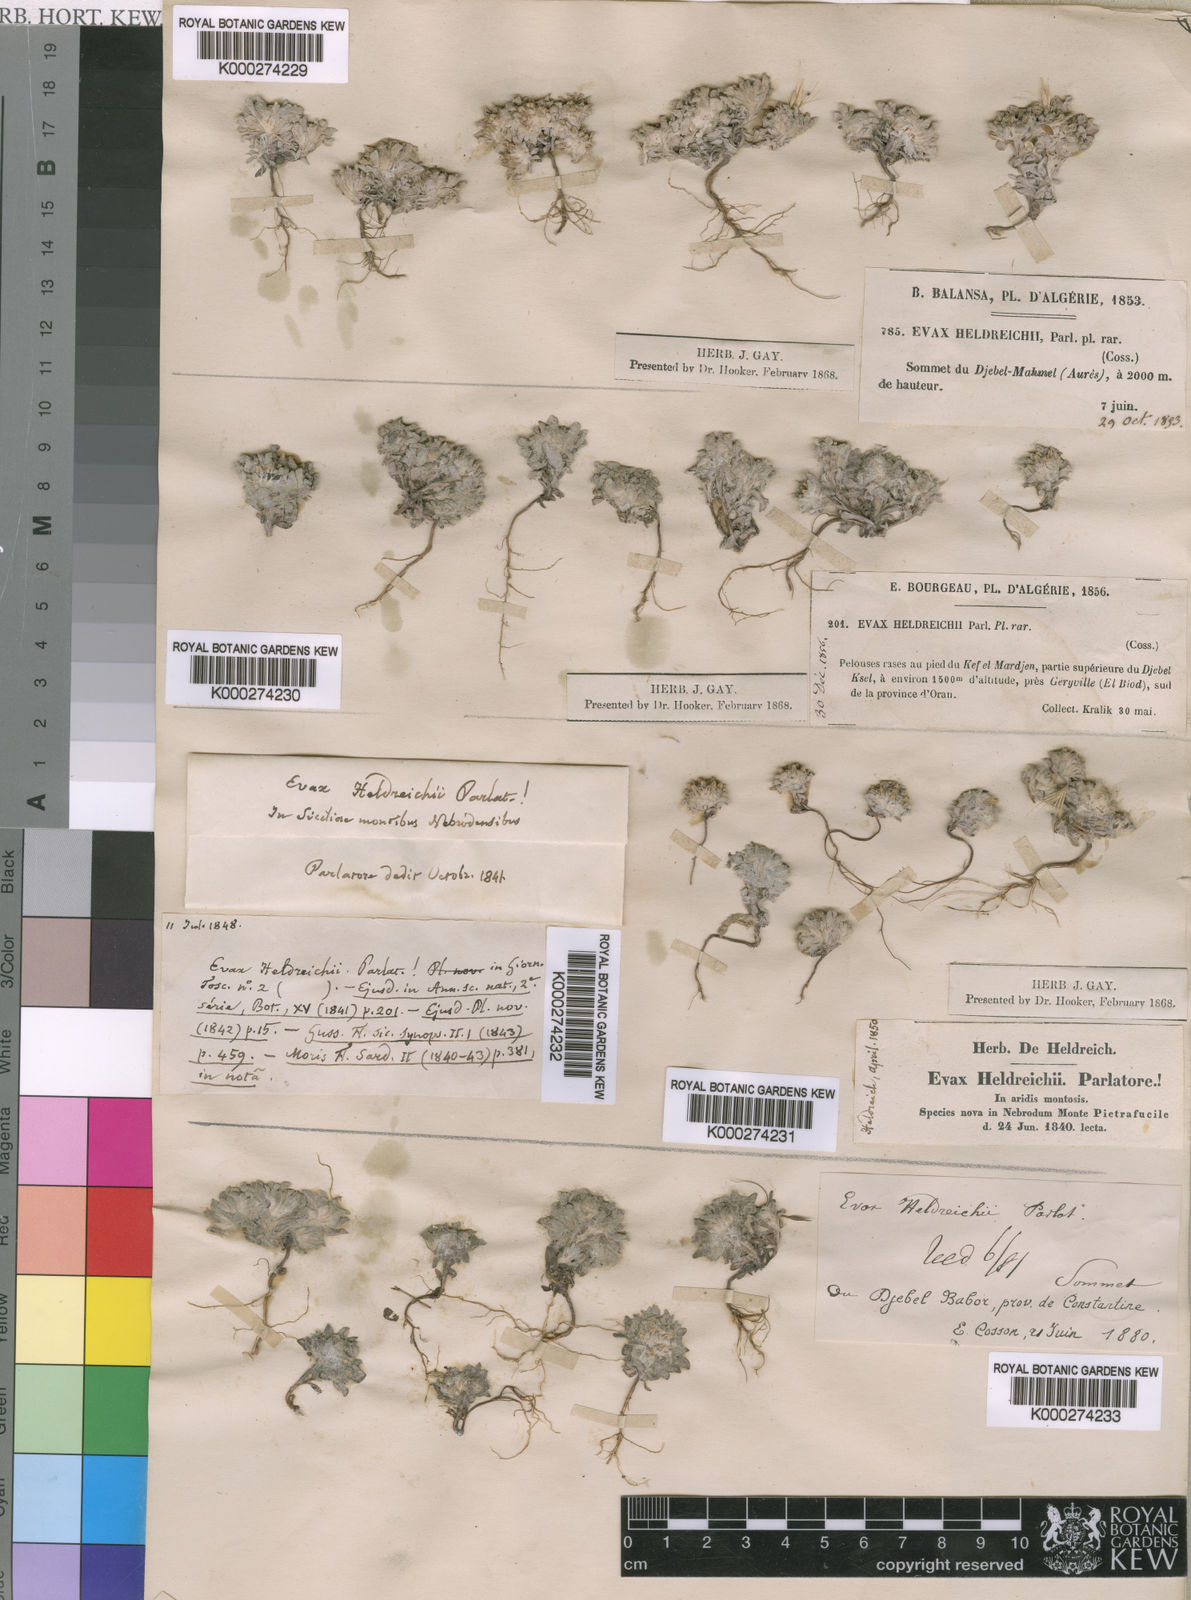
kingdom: Plantae
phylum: Tracheophyta
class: Magnoliopsida
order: Asterales
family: Asteraceae
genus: Filago
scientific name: Filago discolor
